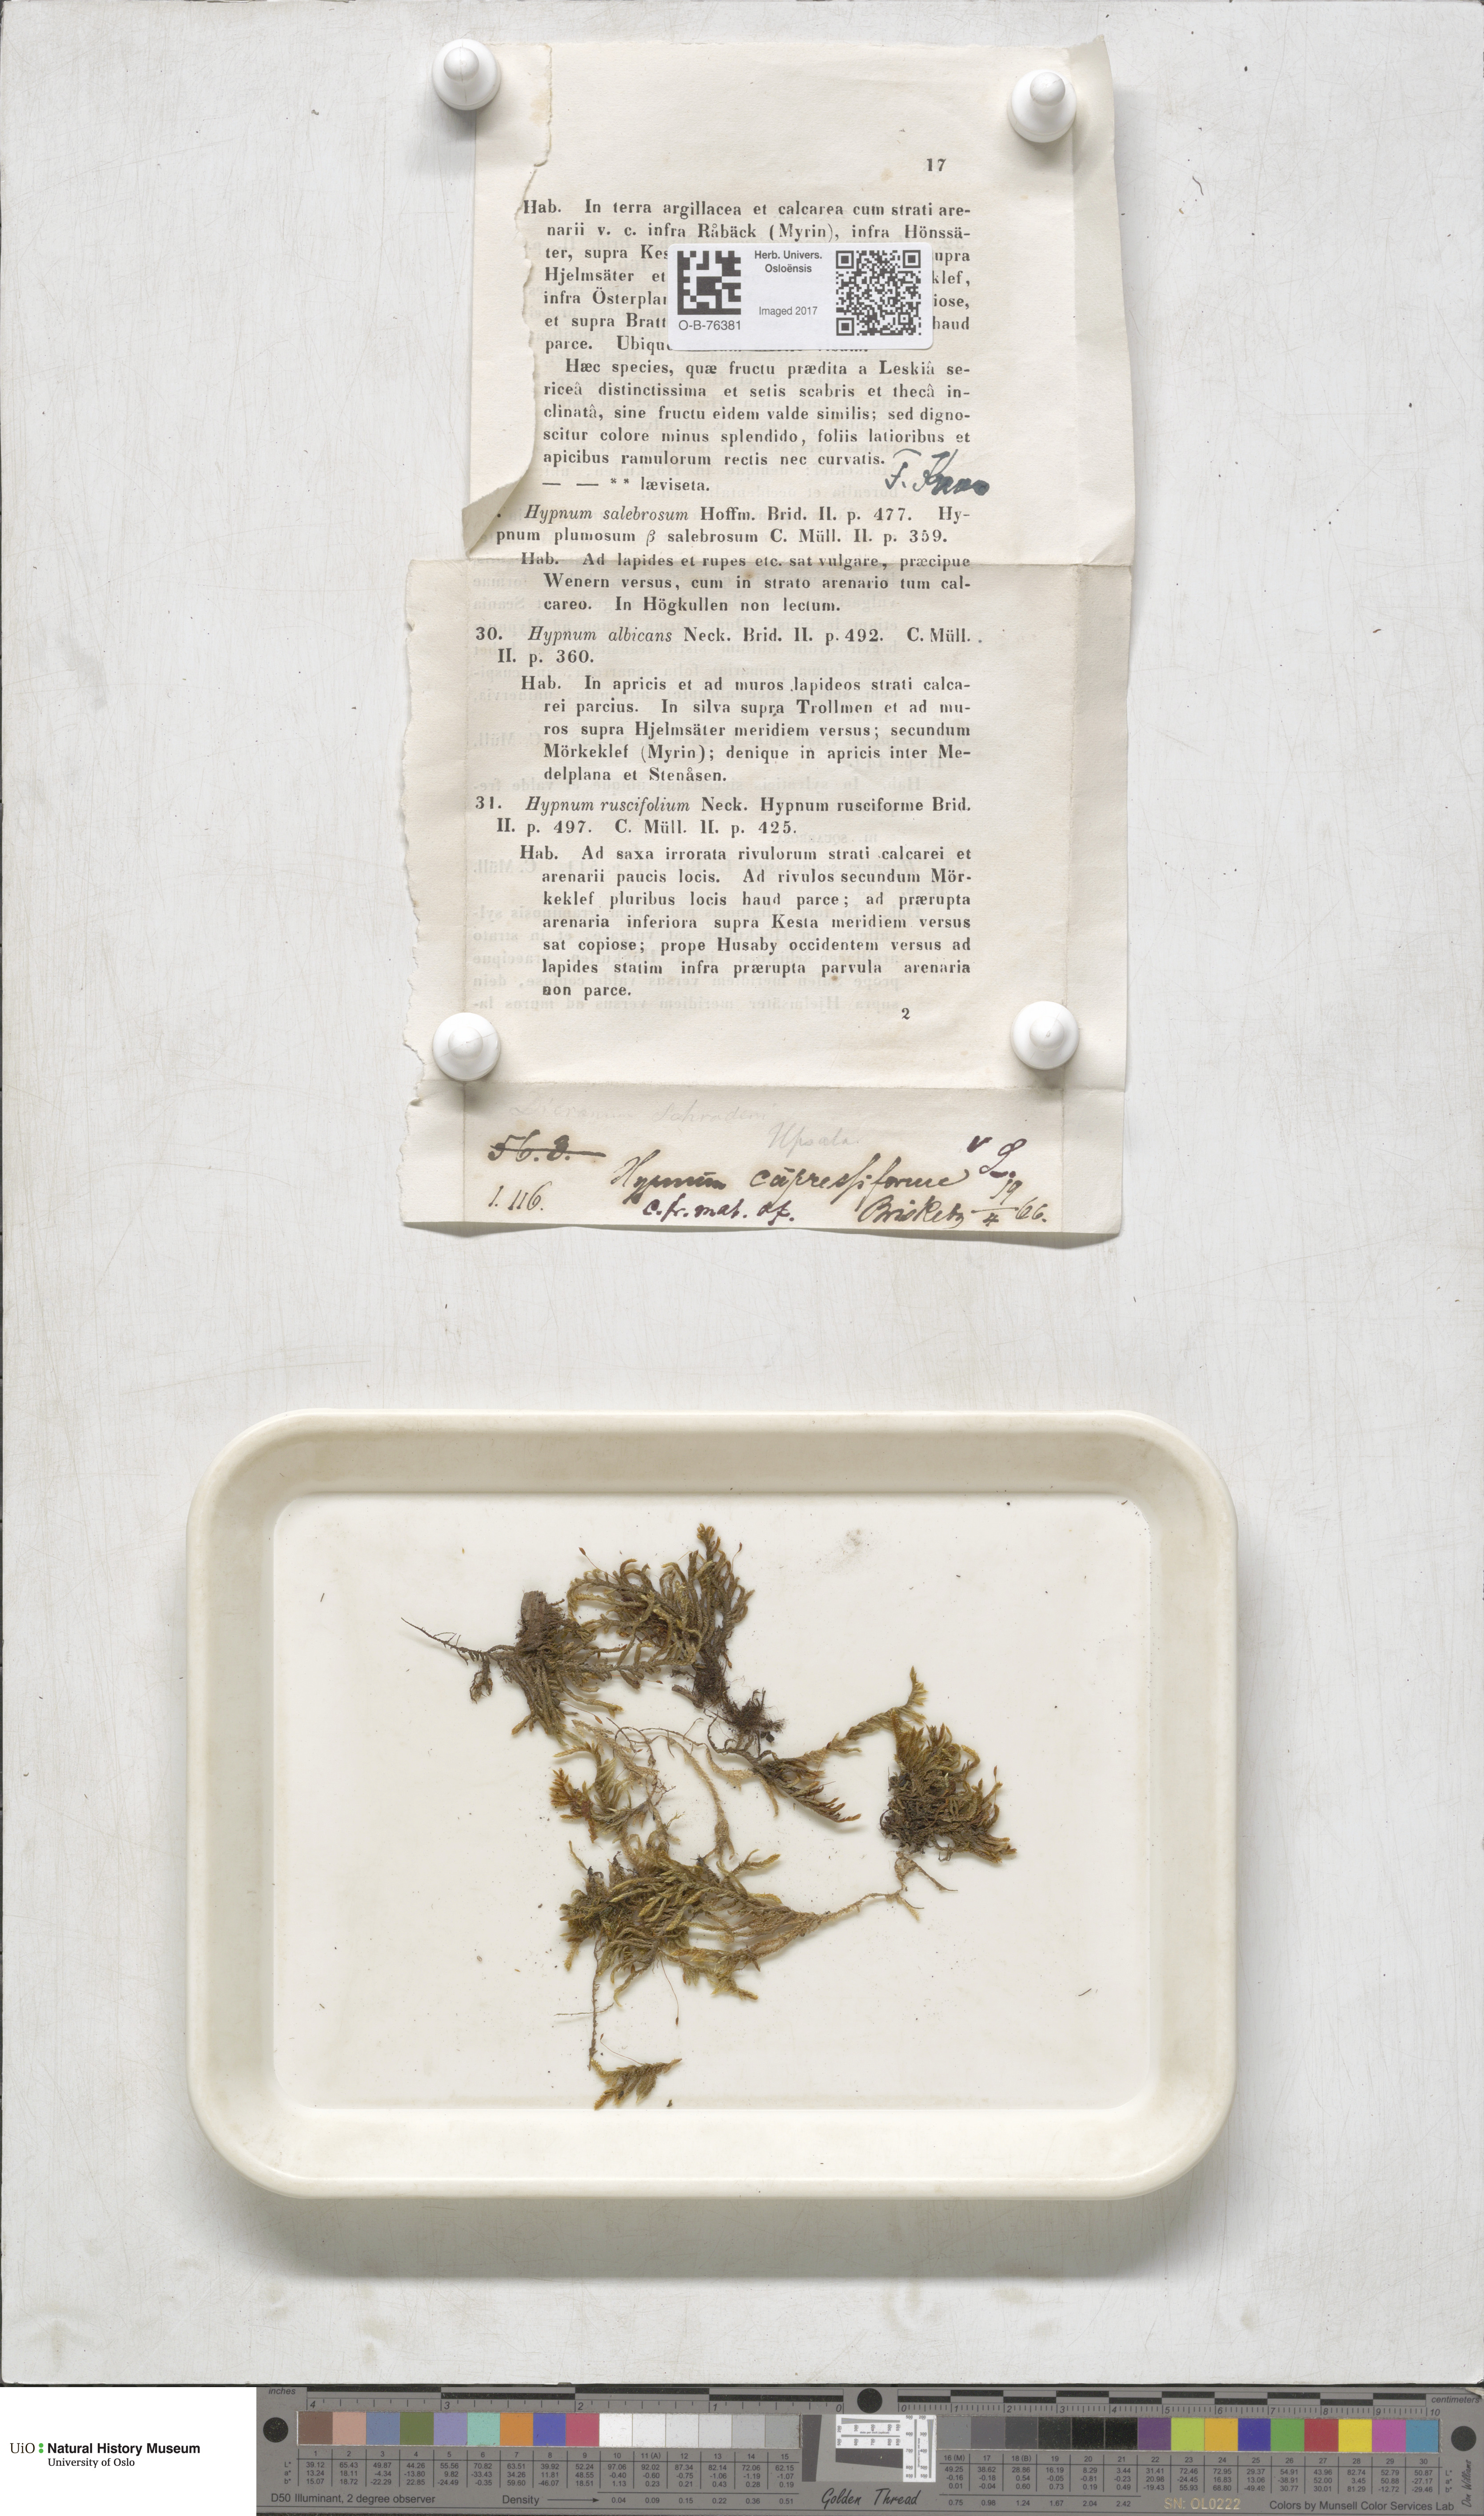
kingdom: Plantae
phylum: Bryophyta
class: Bryopsida
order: Hypnales
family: Hypnaceae
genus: Hypnum
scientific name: Hypnum cupressiforme
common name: Cypress-leaved plait-moss
